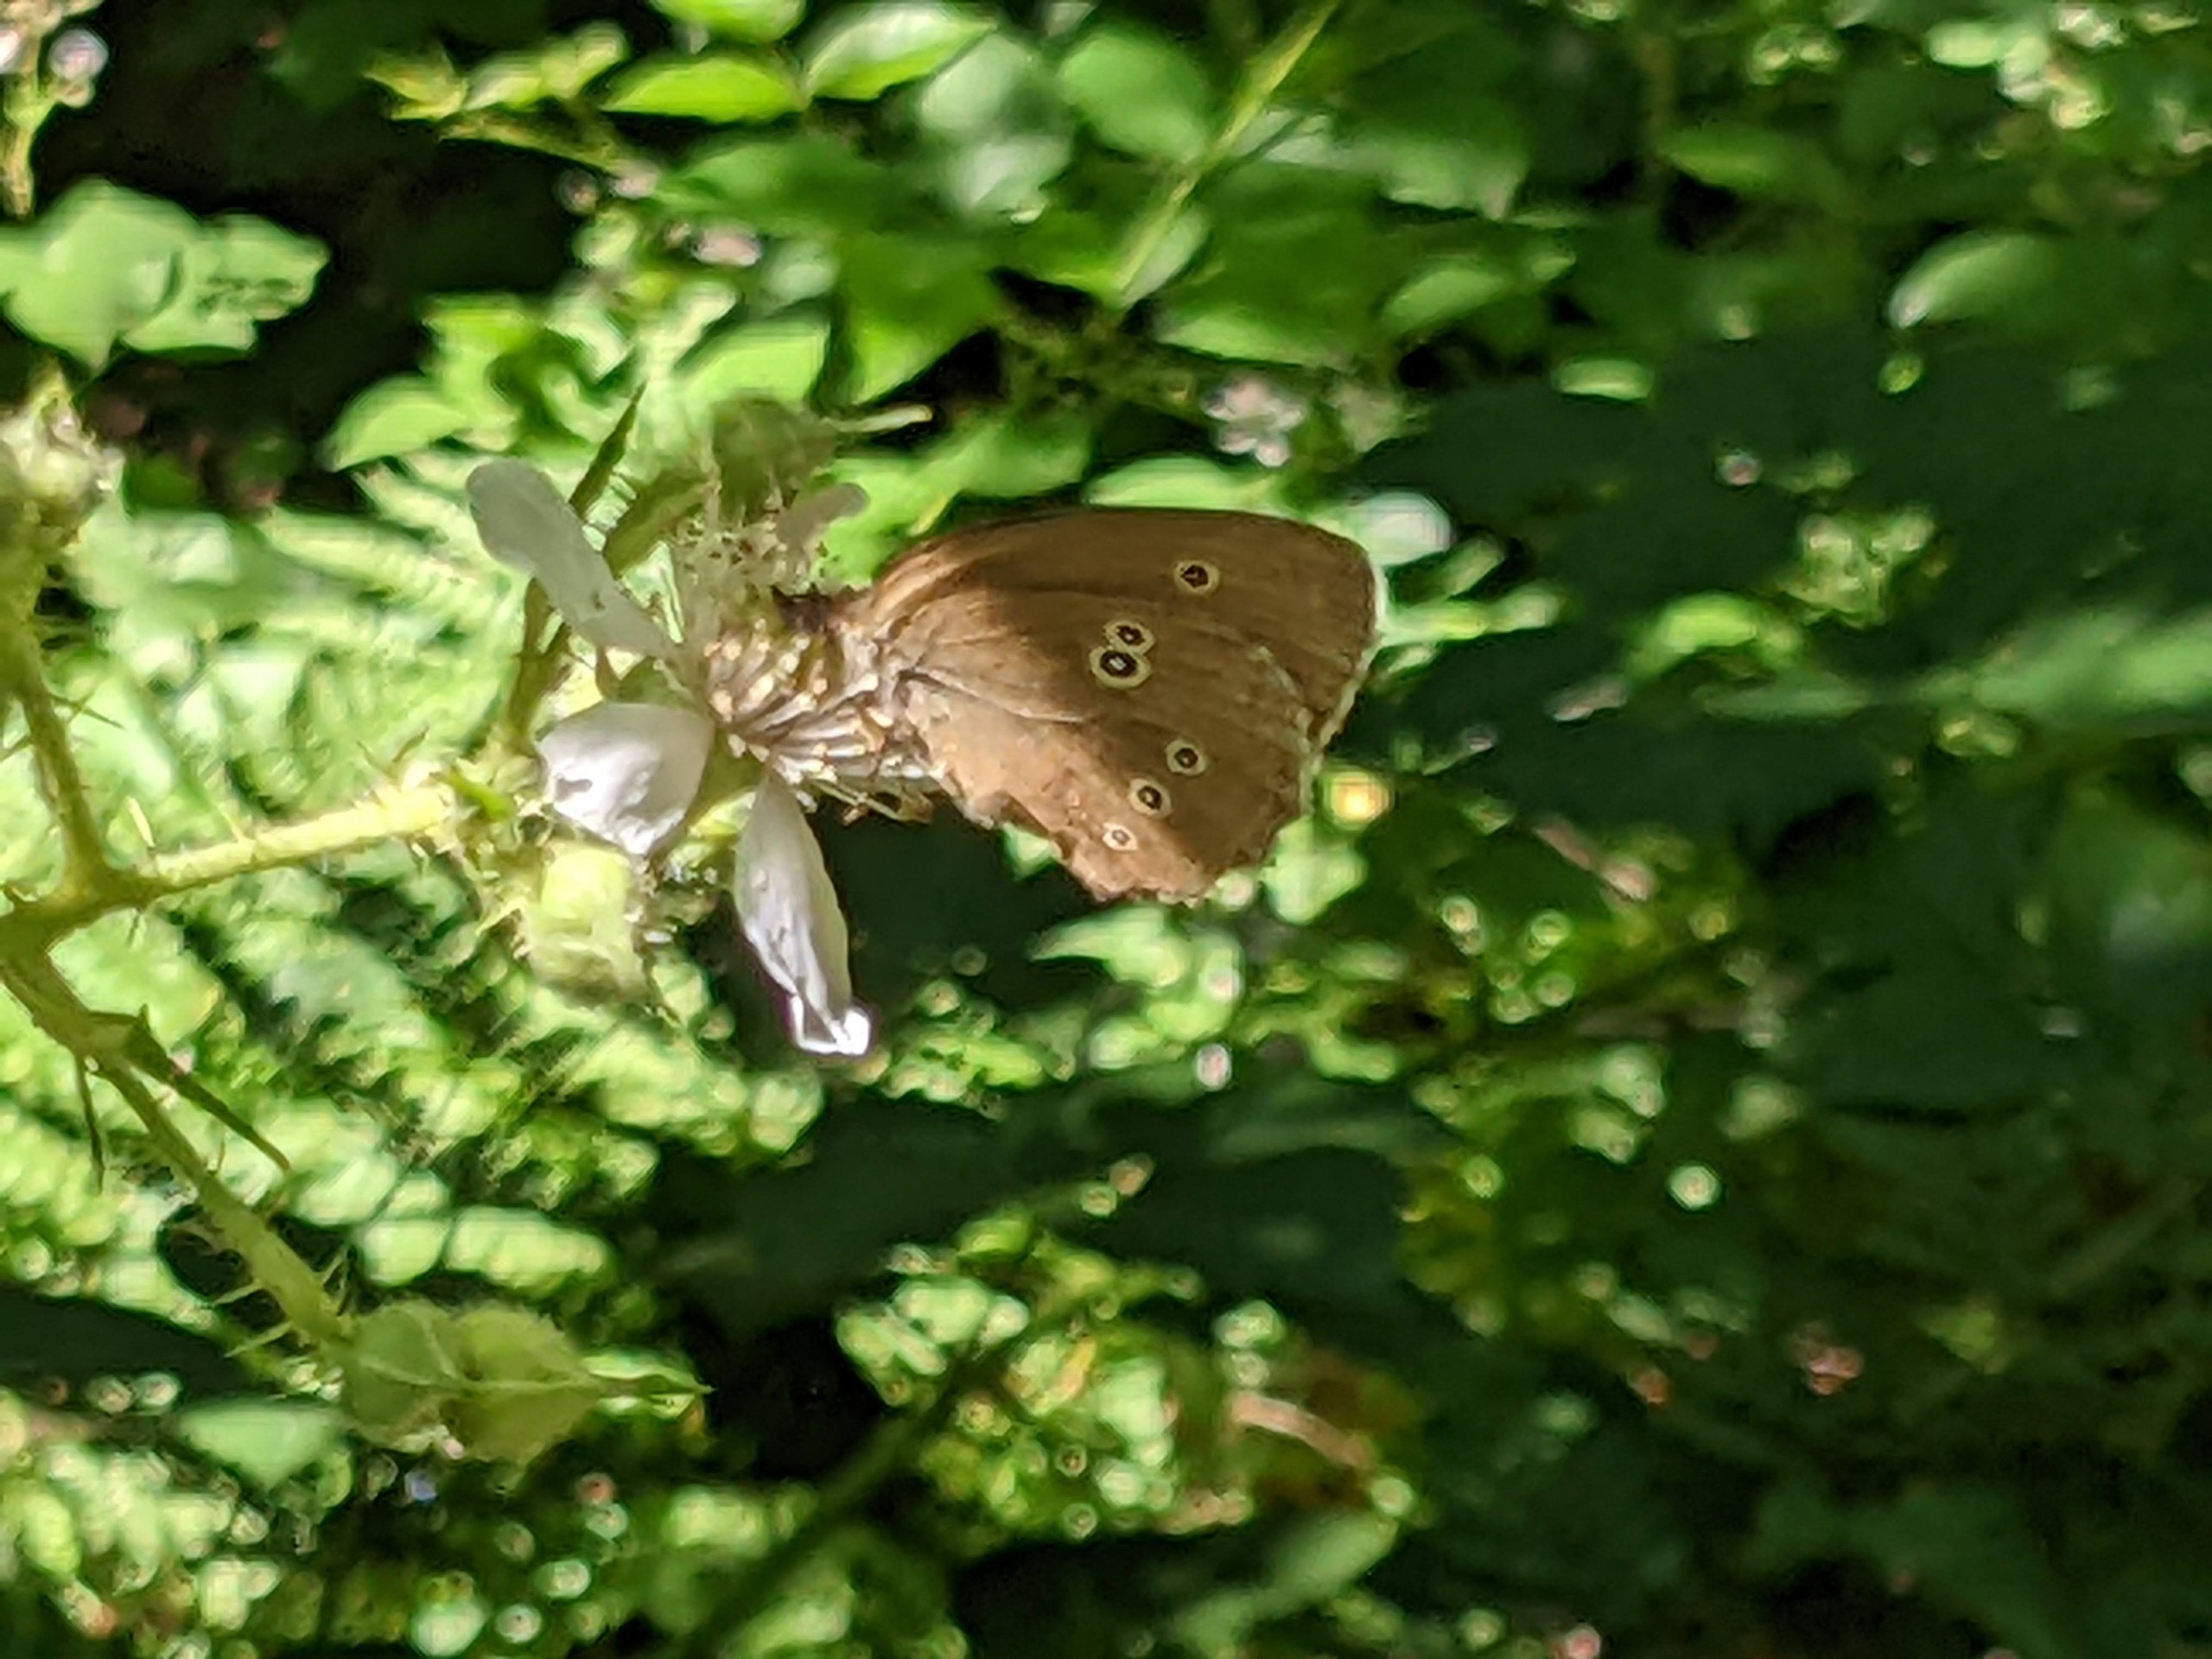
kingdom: Animalia
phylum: Arthropoda
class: Insecta
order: Lepidoptera
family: Nymphalidae
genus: Aphantopus
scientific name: Aphantopus hyperantus
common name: Engrandøje
